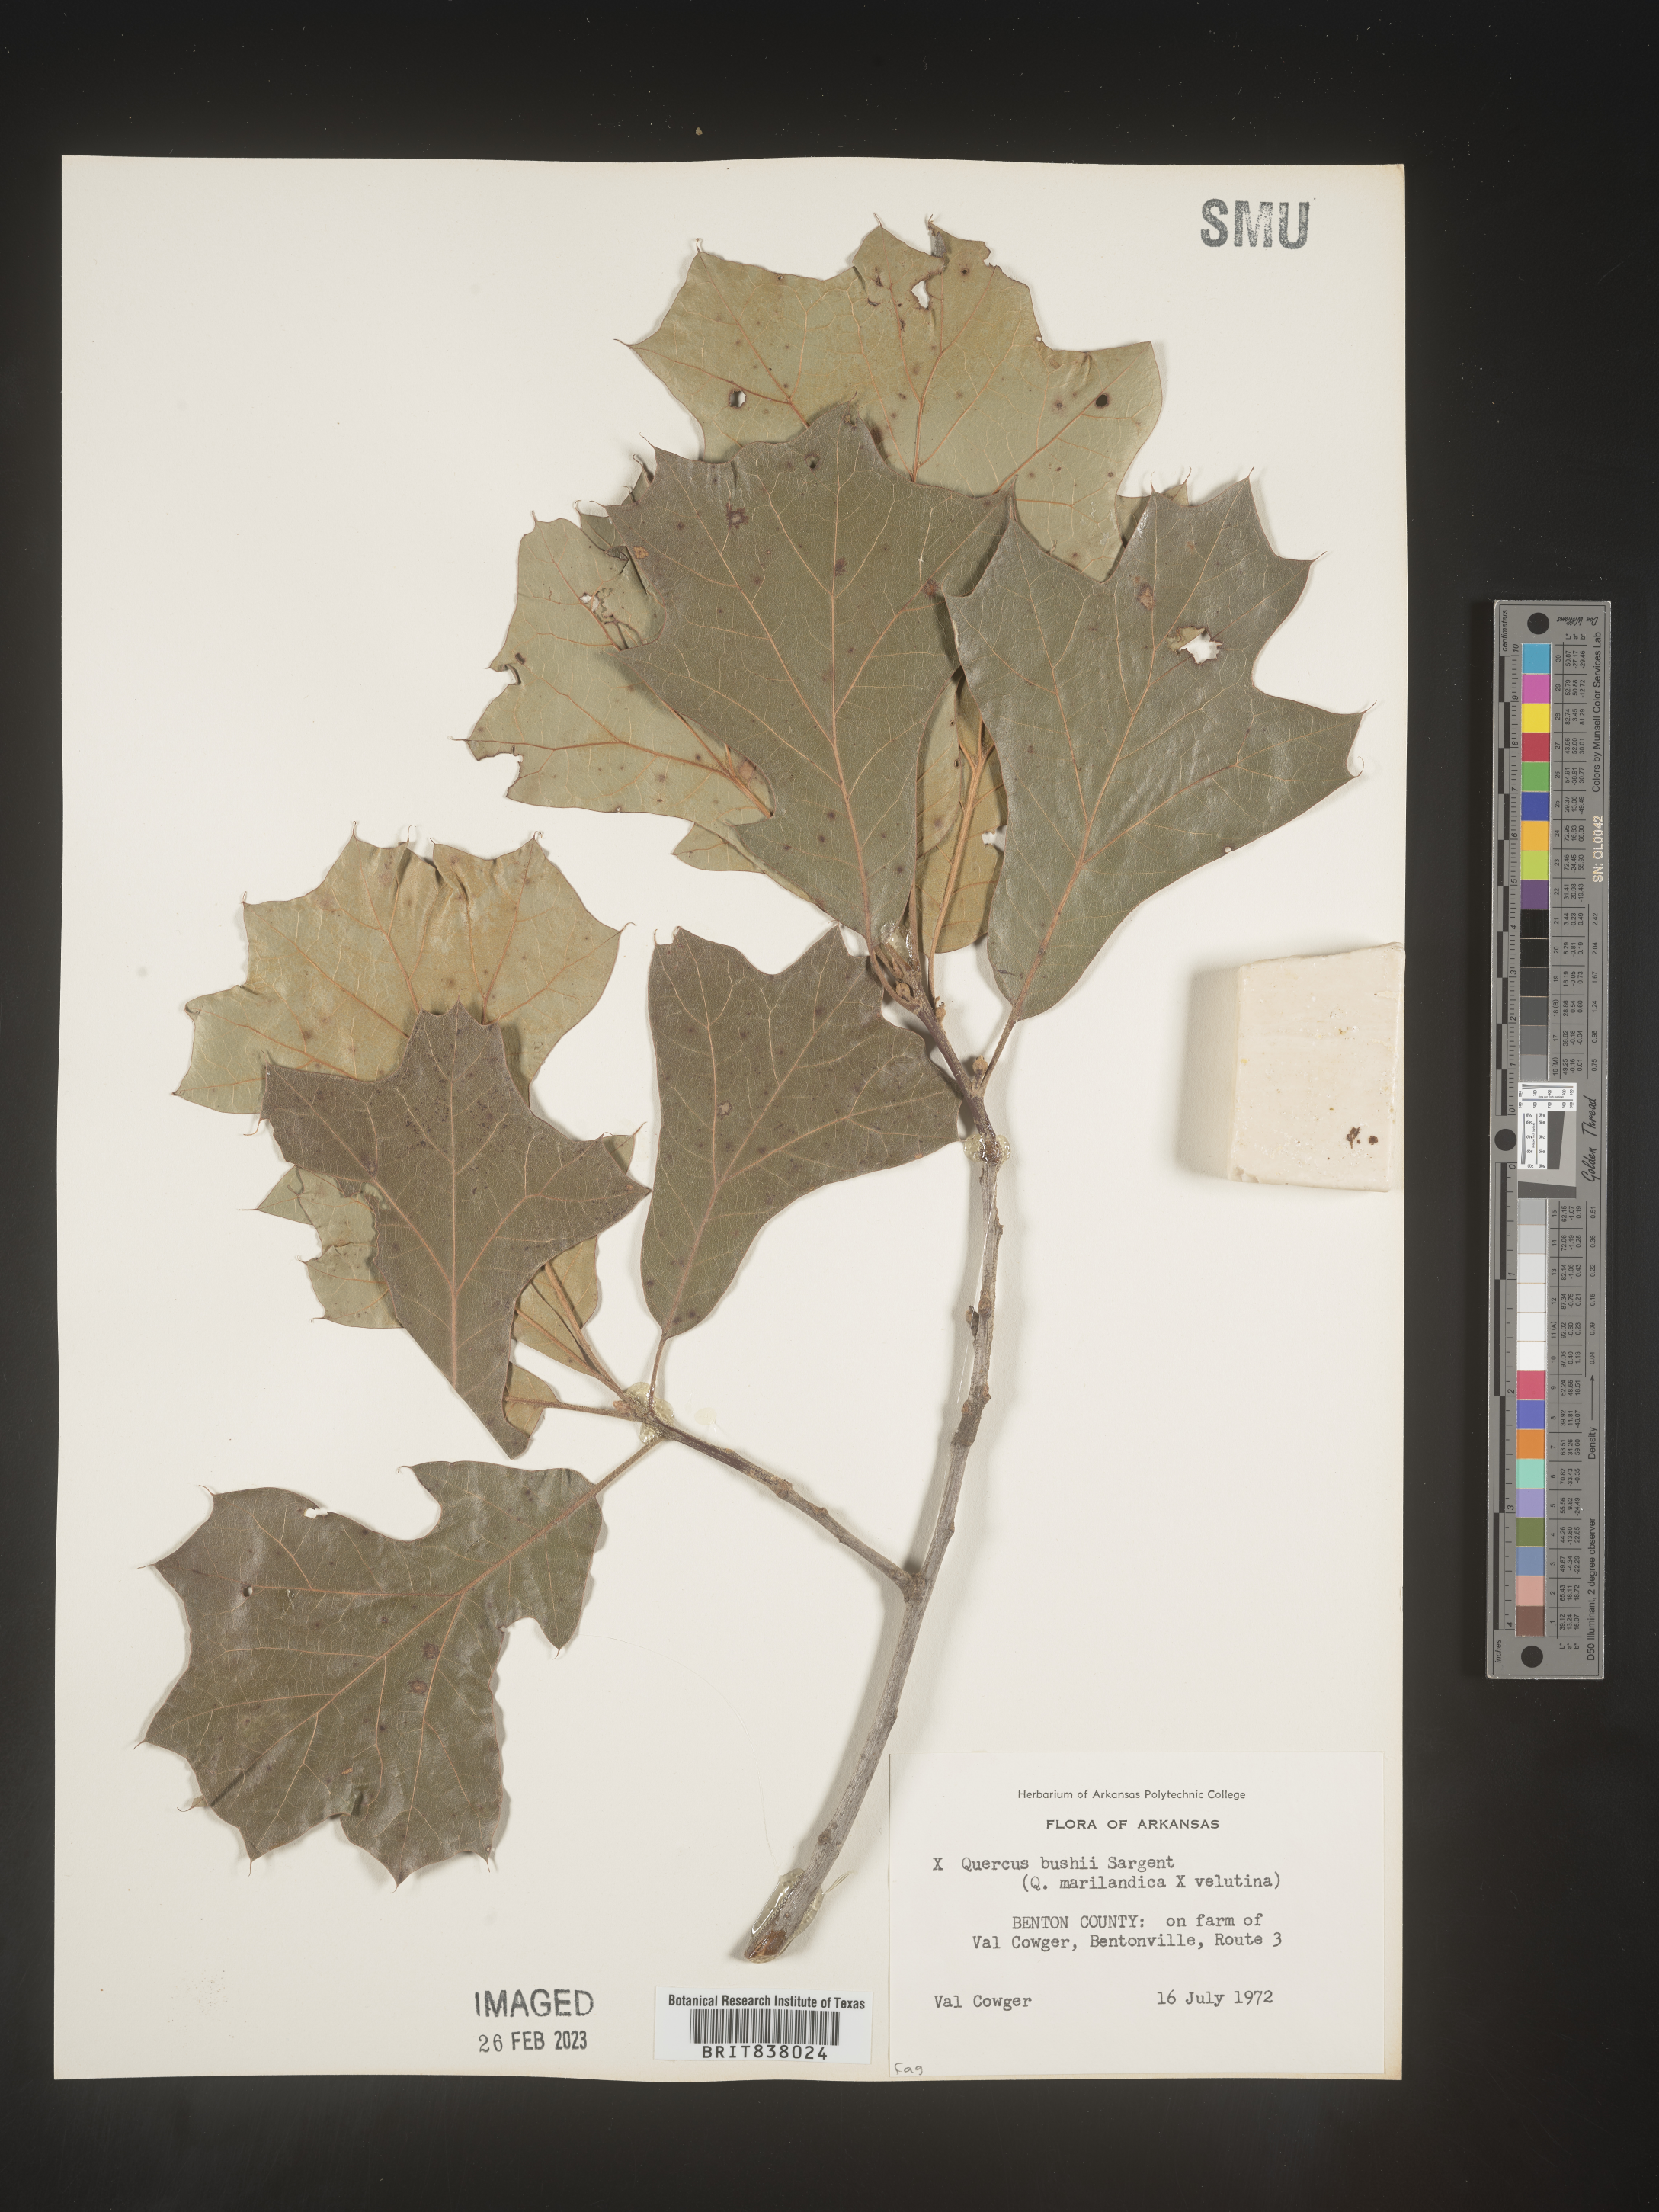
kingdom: Plantae
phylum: Tracheophyta
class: Magnoliopsida
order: Fagales
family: Fagaceae
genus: Quercus
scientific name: Quercus
